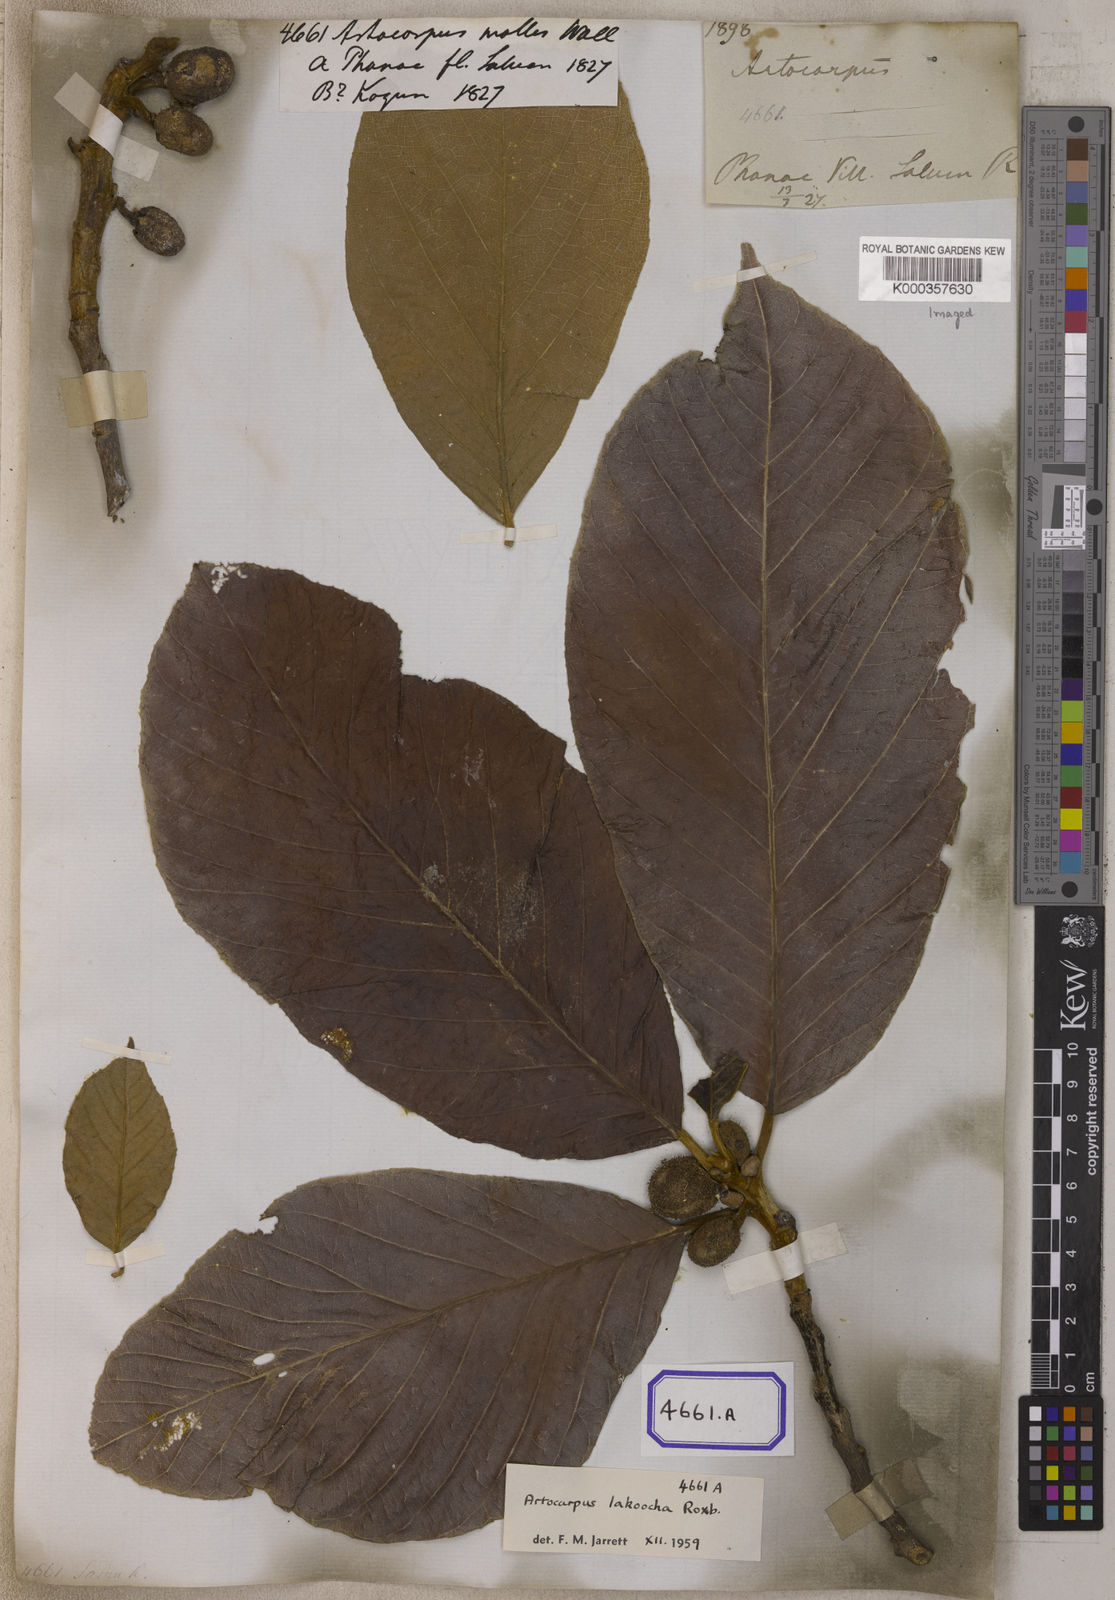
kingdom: Plantae
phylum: Tracheophyta
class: Magnoliopsida
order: Rosales
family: Moraceae
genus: Artocarpus
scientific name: Artocarpus lacucha
